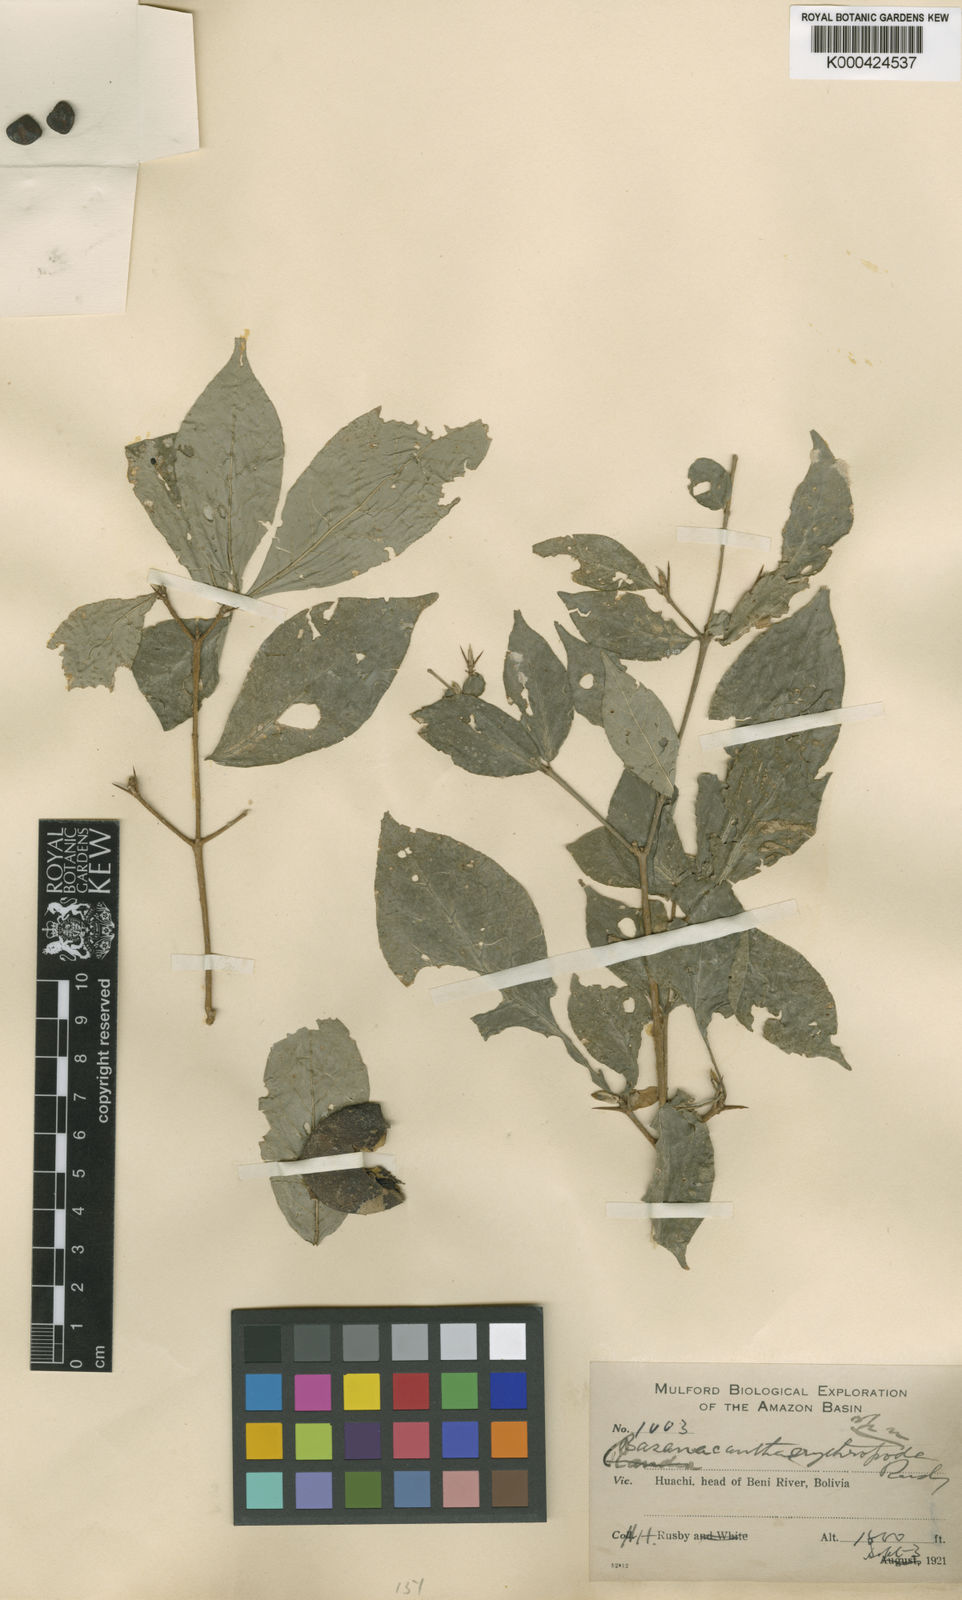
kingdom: Plantae
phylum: Tracheophyta
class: Magnoliopsida
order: Gentianales
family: Rubiaceae
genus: Randia
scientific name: Randia nitida
